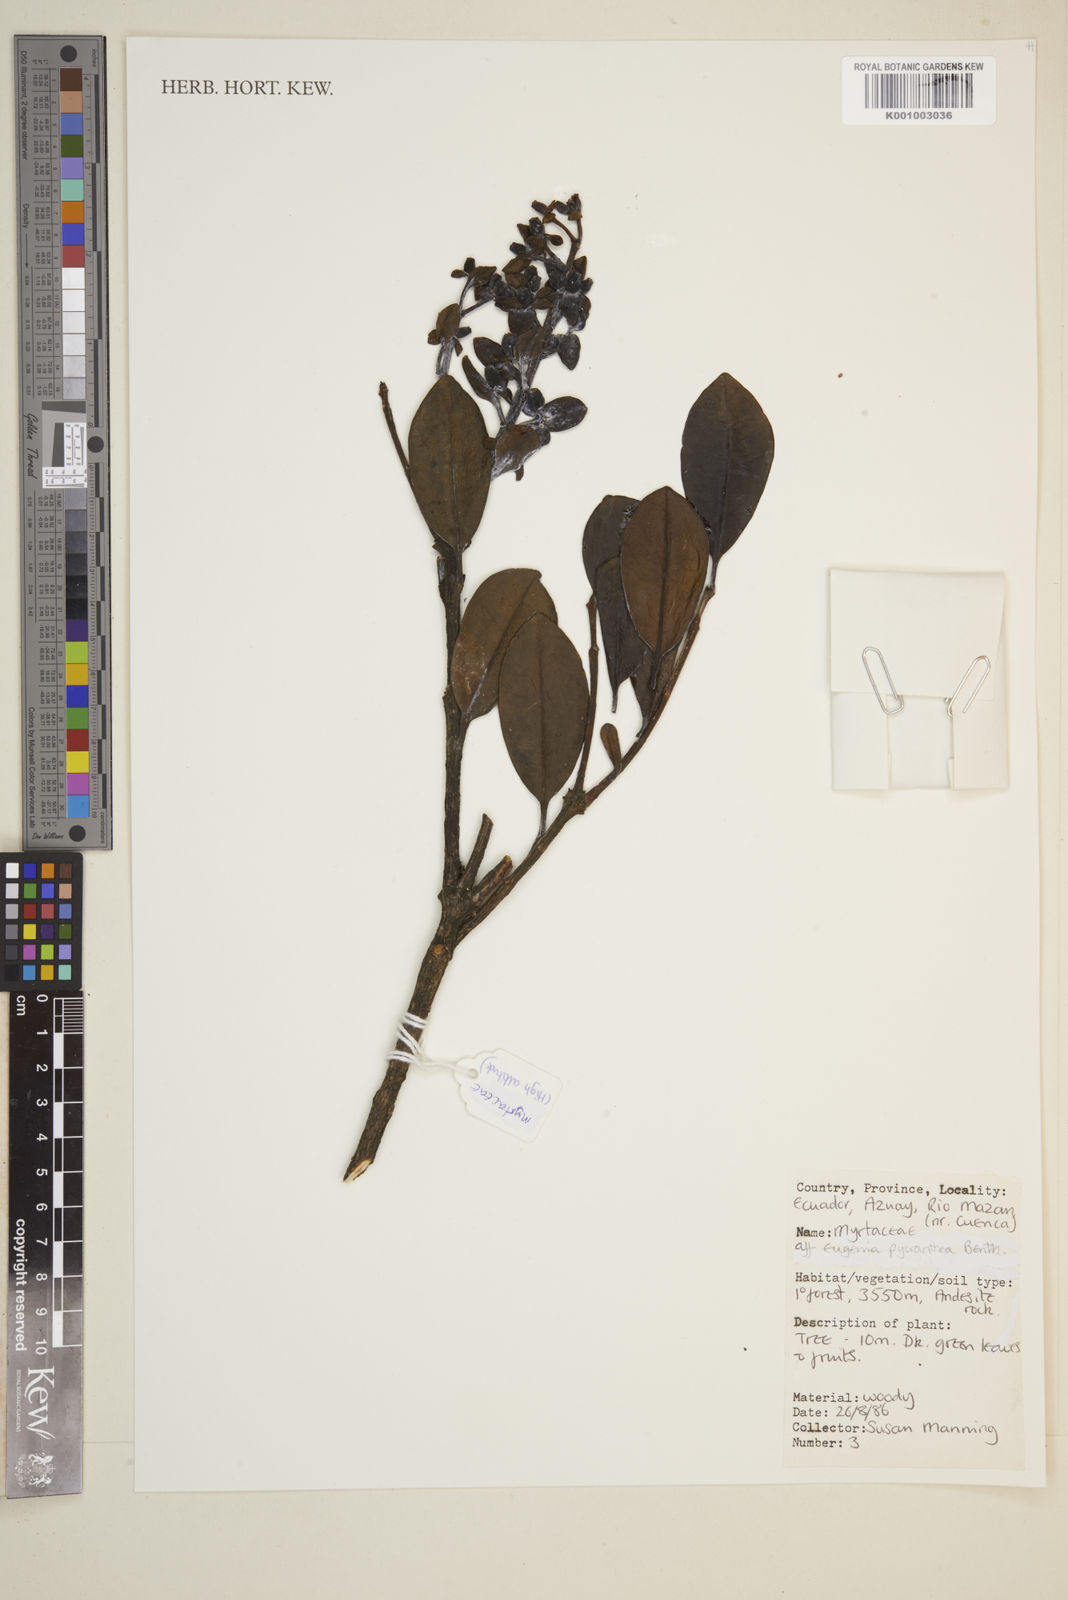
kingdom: Plantae
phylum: Tracheophyta
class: Magnoliopsida
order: Myrtales
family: Myrtaceae
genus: Eugenia
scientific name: Eugenia
